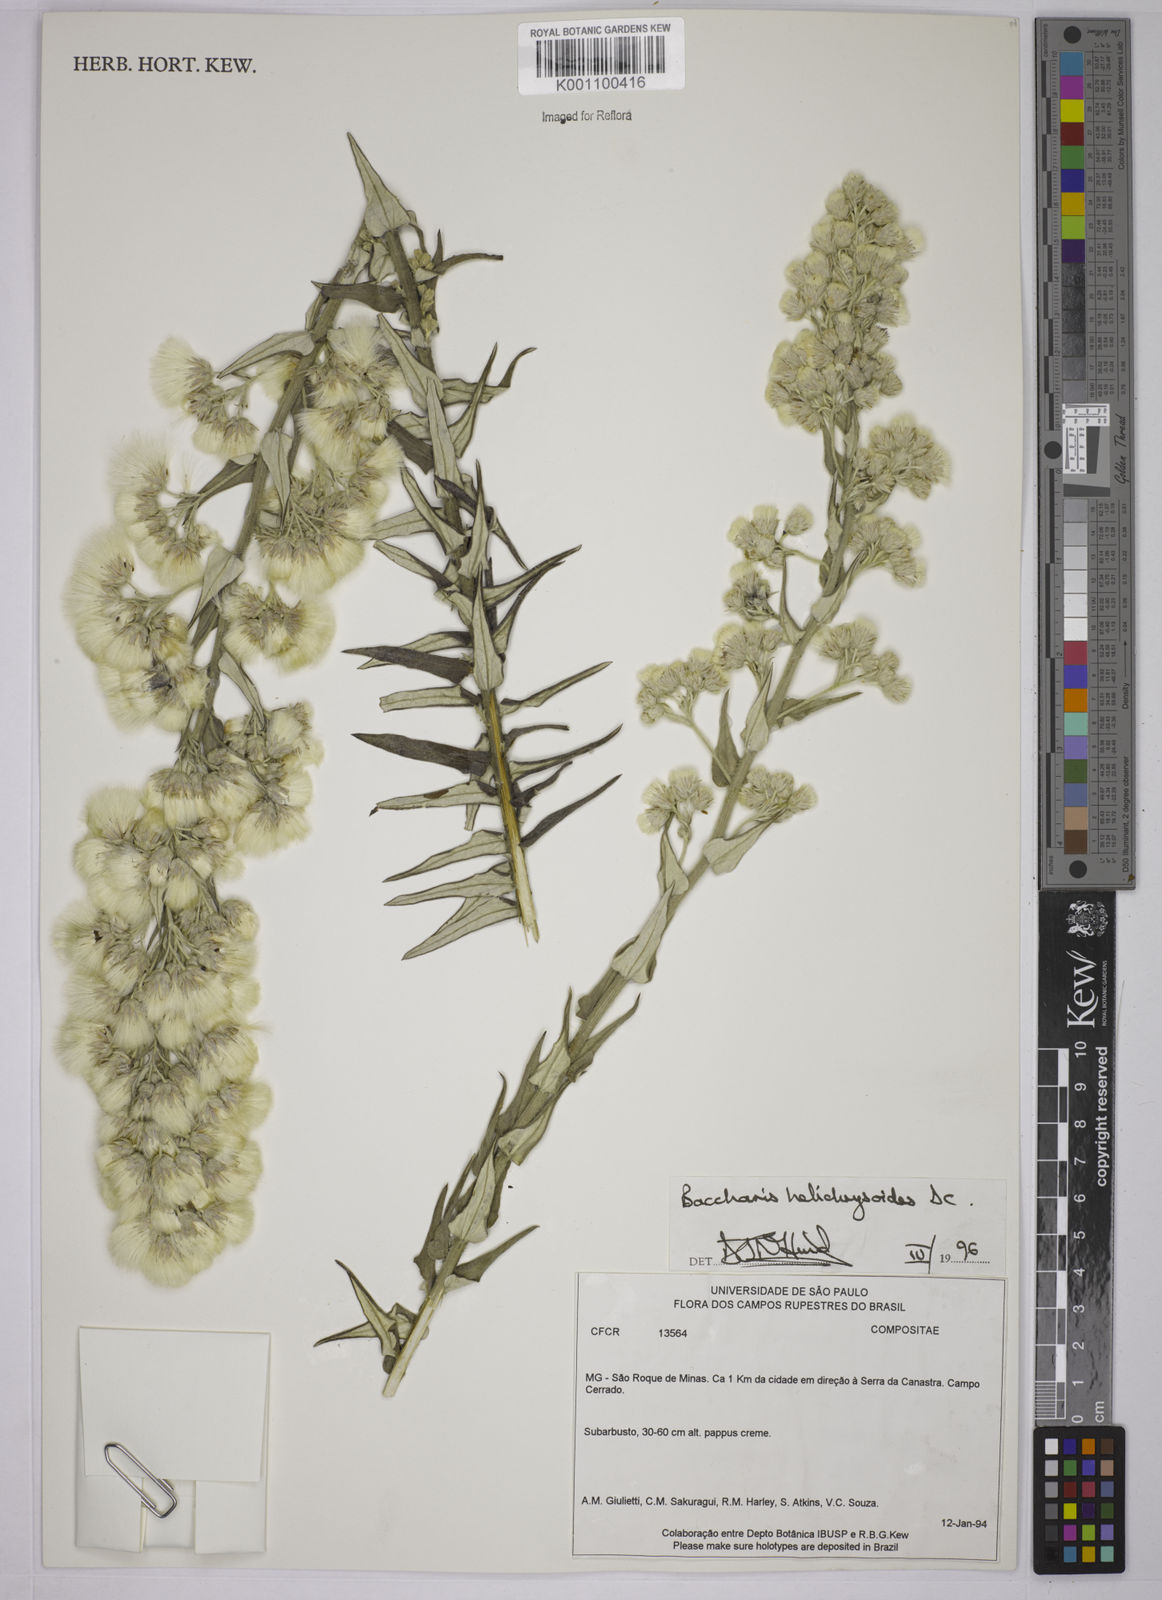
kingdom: Plantae
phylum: Tracheophyta
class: Magnoliopsida
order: Asterales
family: Asteraceae
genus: Baccharis
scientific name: Baccharis helichrysoides
